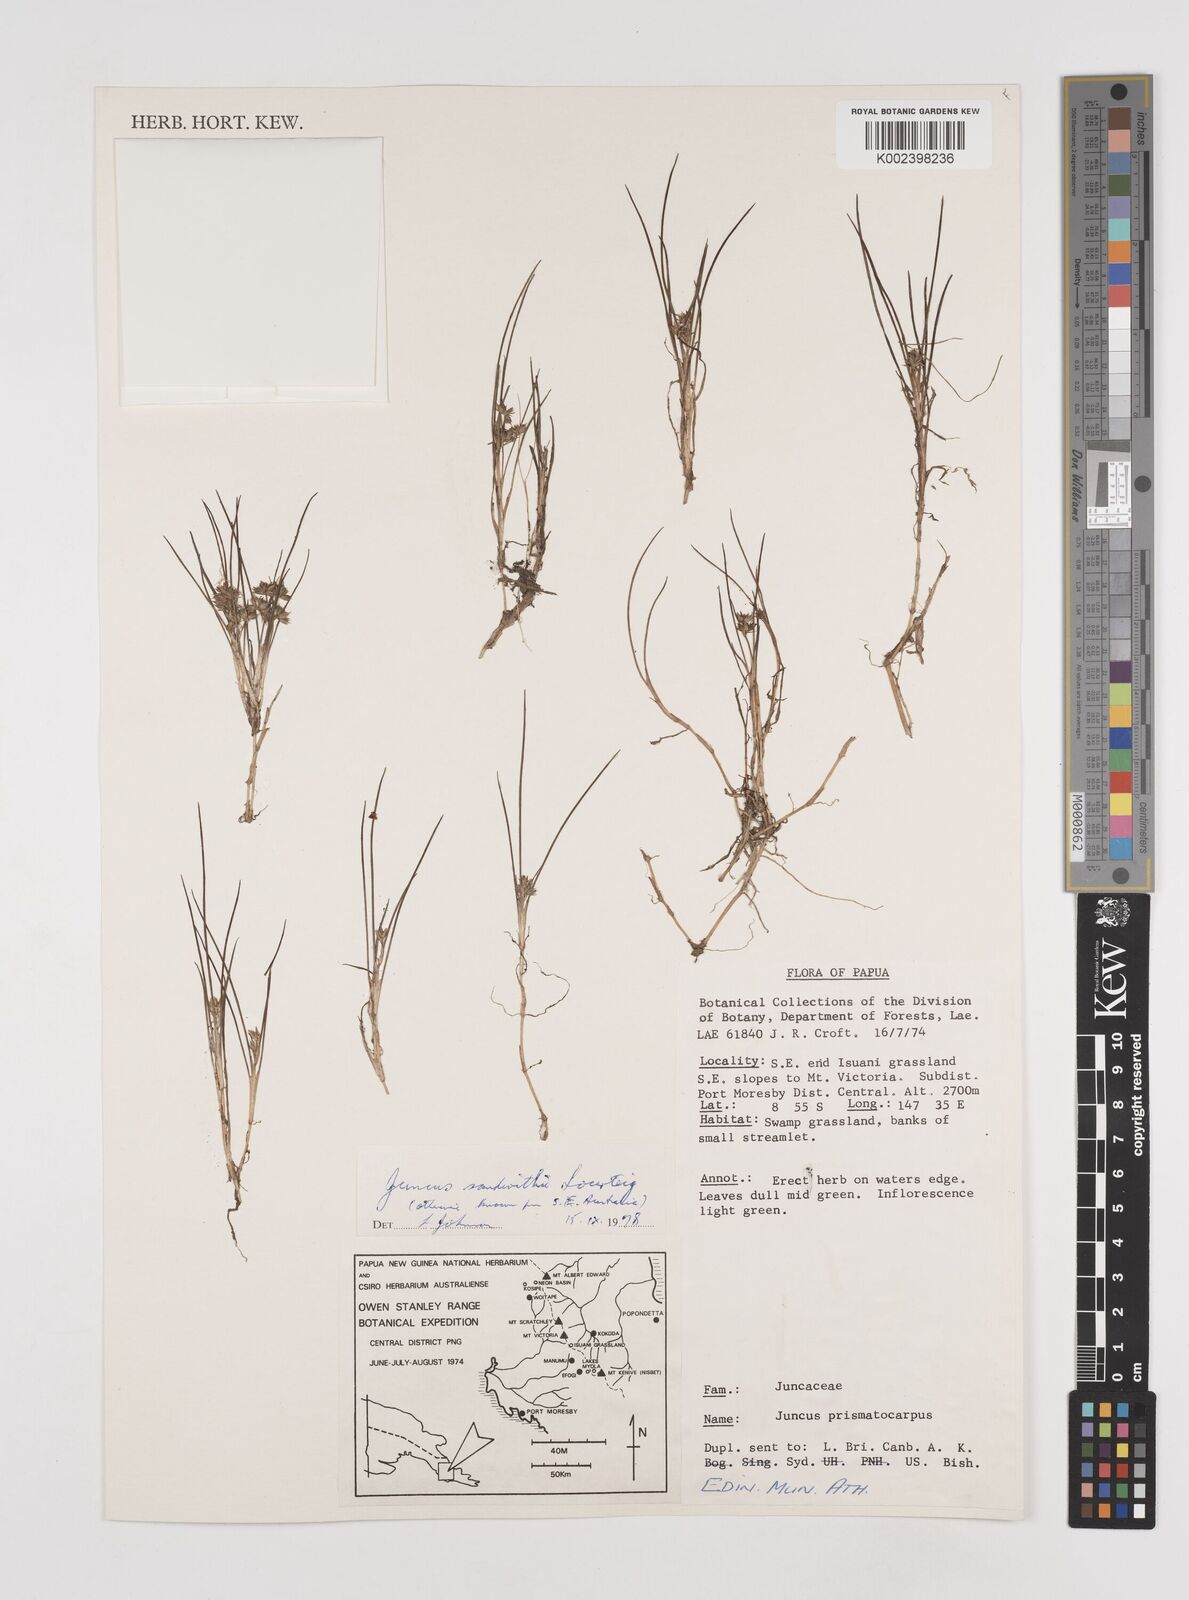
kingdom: Plantae
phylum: Tracheophyta
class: Liliopsida
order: Poales
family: Juncaceae
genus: Juncus
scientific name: Juncus sandwithii
